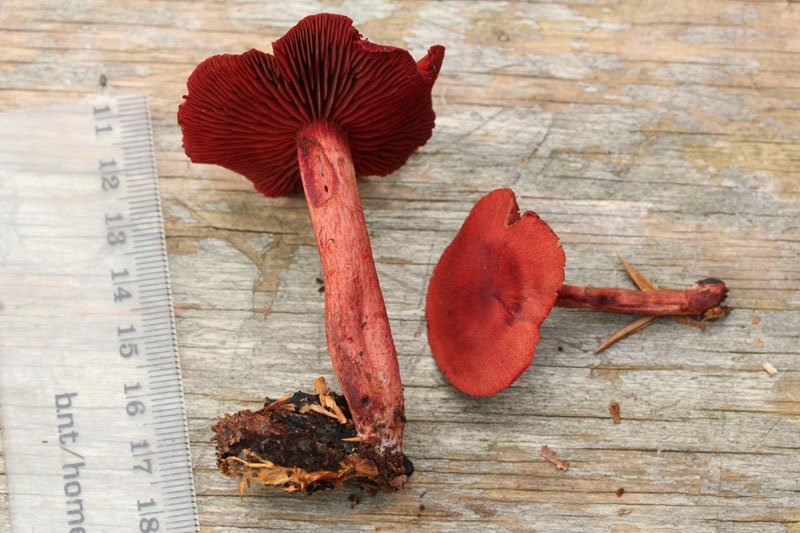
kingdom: Fungi
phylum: Basidiomycota
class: Agaricomycetes
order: Agaricales
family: Cortinariaceae
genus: Cortinarius
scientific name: Cortinarius sanguineus
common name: Bloodred webcap
